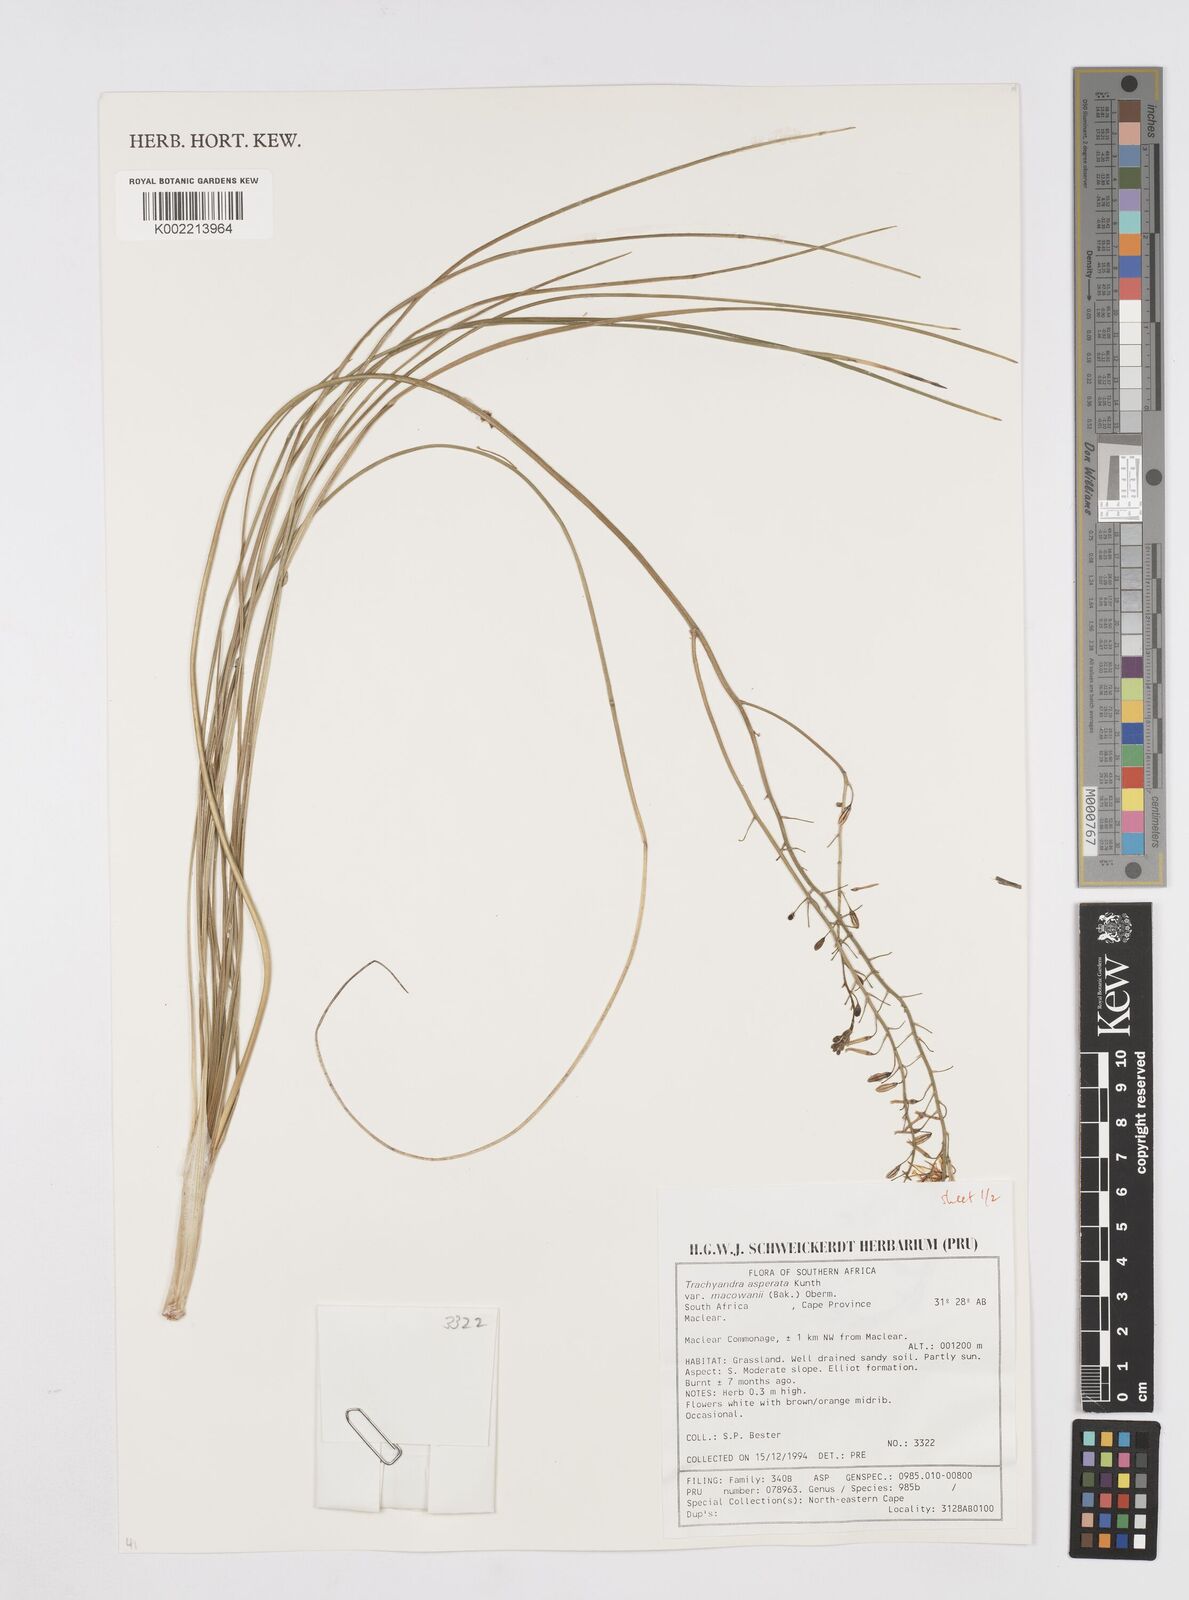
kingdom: Plantae
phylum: Tracheophyta
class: Liliopsida
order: Asparagales
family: Asphodelaceae
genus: Trachyandra
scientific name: Trachyandra asperata
